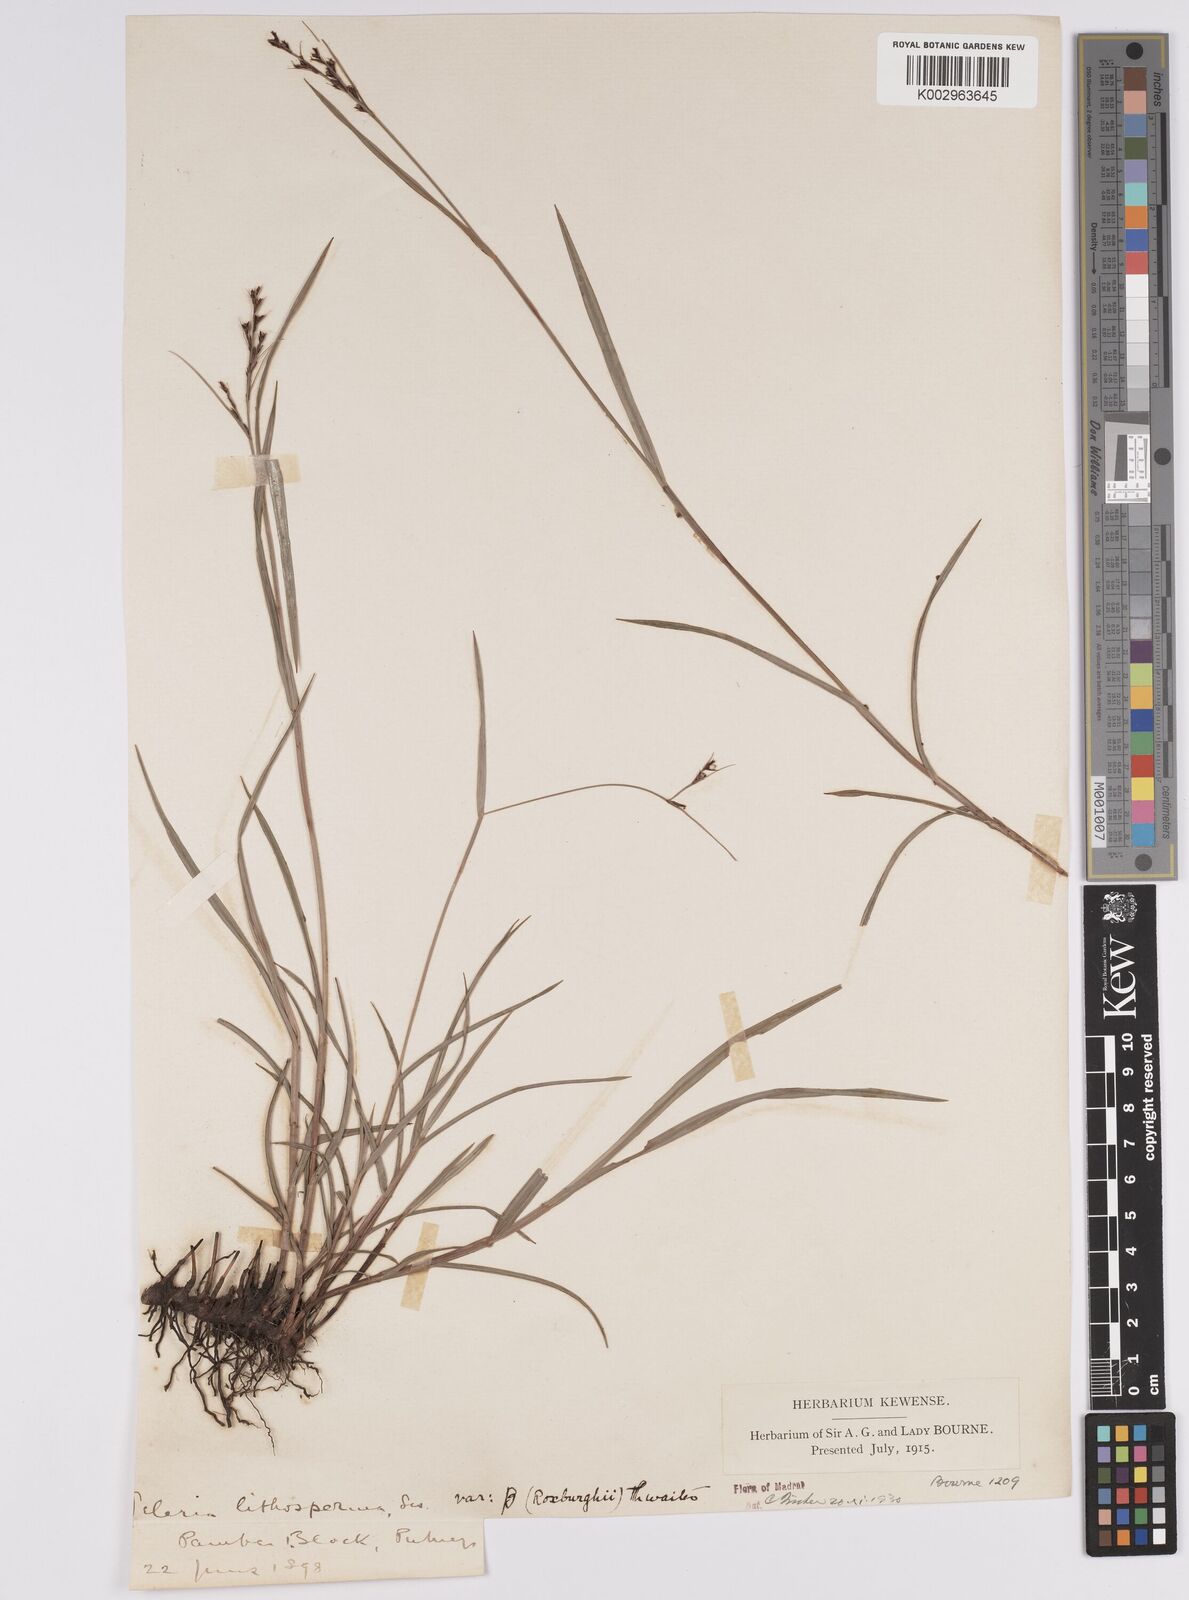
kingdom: Plantae
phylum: Tracheophyta
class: Liliopsida
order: Poales
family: Cyperaceae
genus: Scleria
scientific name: Scleria lithosperma
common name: Florida keys nut-rush
